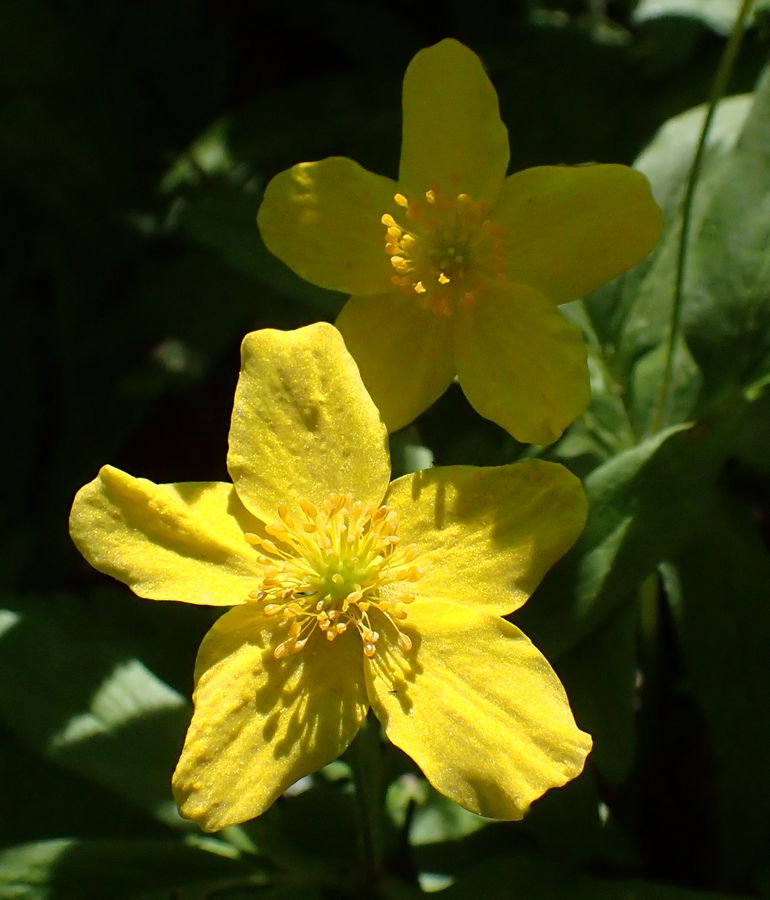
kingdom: Plantae
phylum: Tracheophyta
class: Magnoliopsida
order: Ranunculales
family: Ranunculaceae
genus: Anemone
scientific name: Anemone ranunculoides
